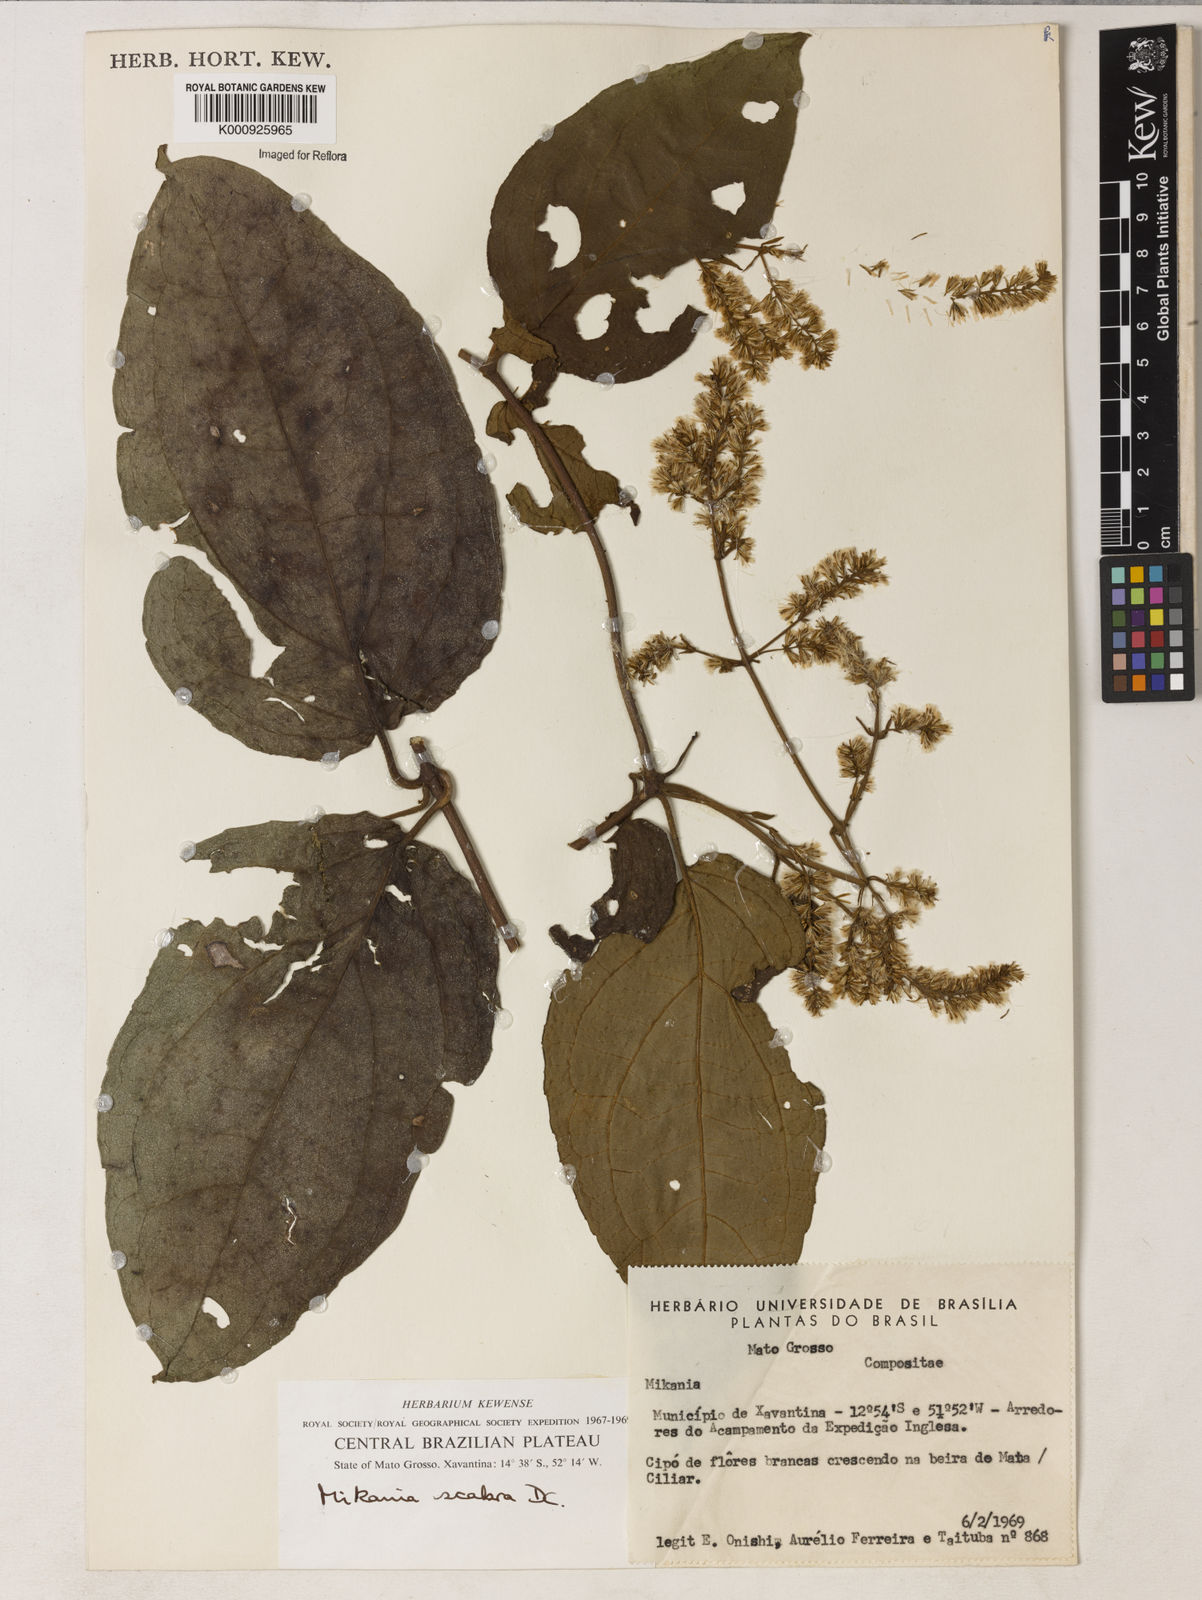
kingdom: Plantae
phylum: Tracheophyta
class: Magnoliopsida
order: Asterales
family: Asteraceae
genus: Mikania
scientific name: Mikania psilostachya
